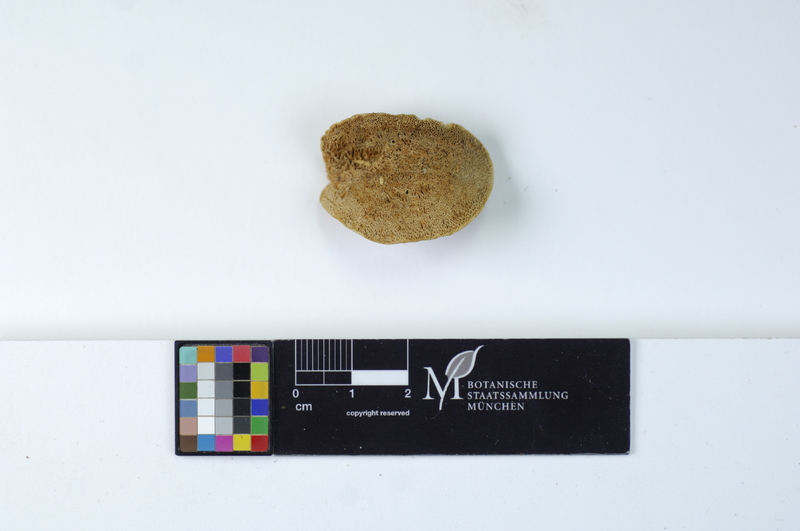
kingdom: Plantae
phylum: Tracheophyta
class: Magnoliopsida
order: Fagales
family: Betulaceae
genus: Alnus
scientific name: Alnus incana
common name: Grey alder
